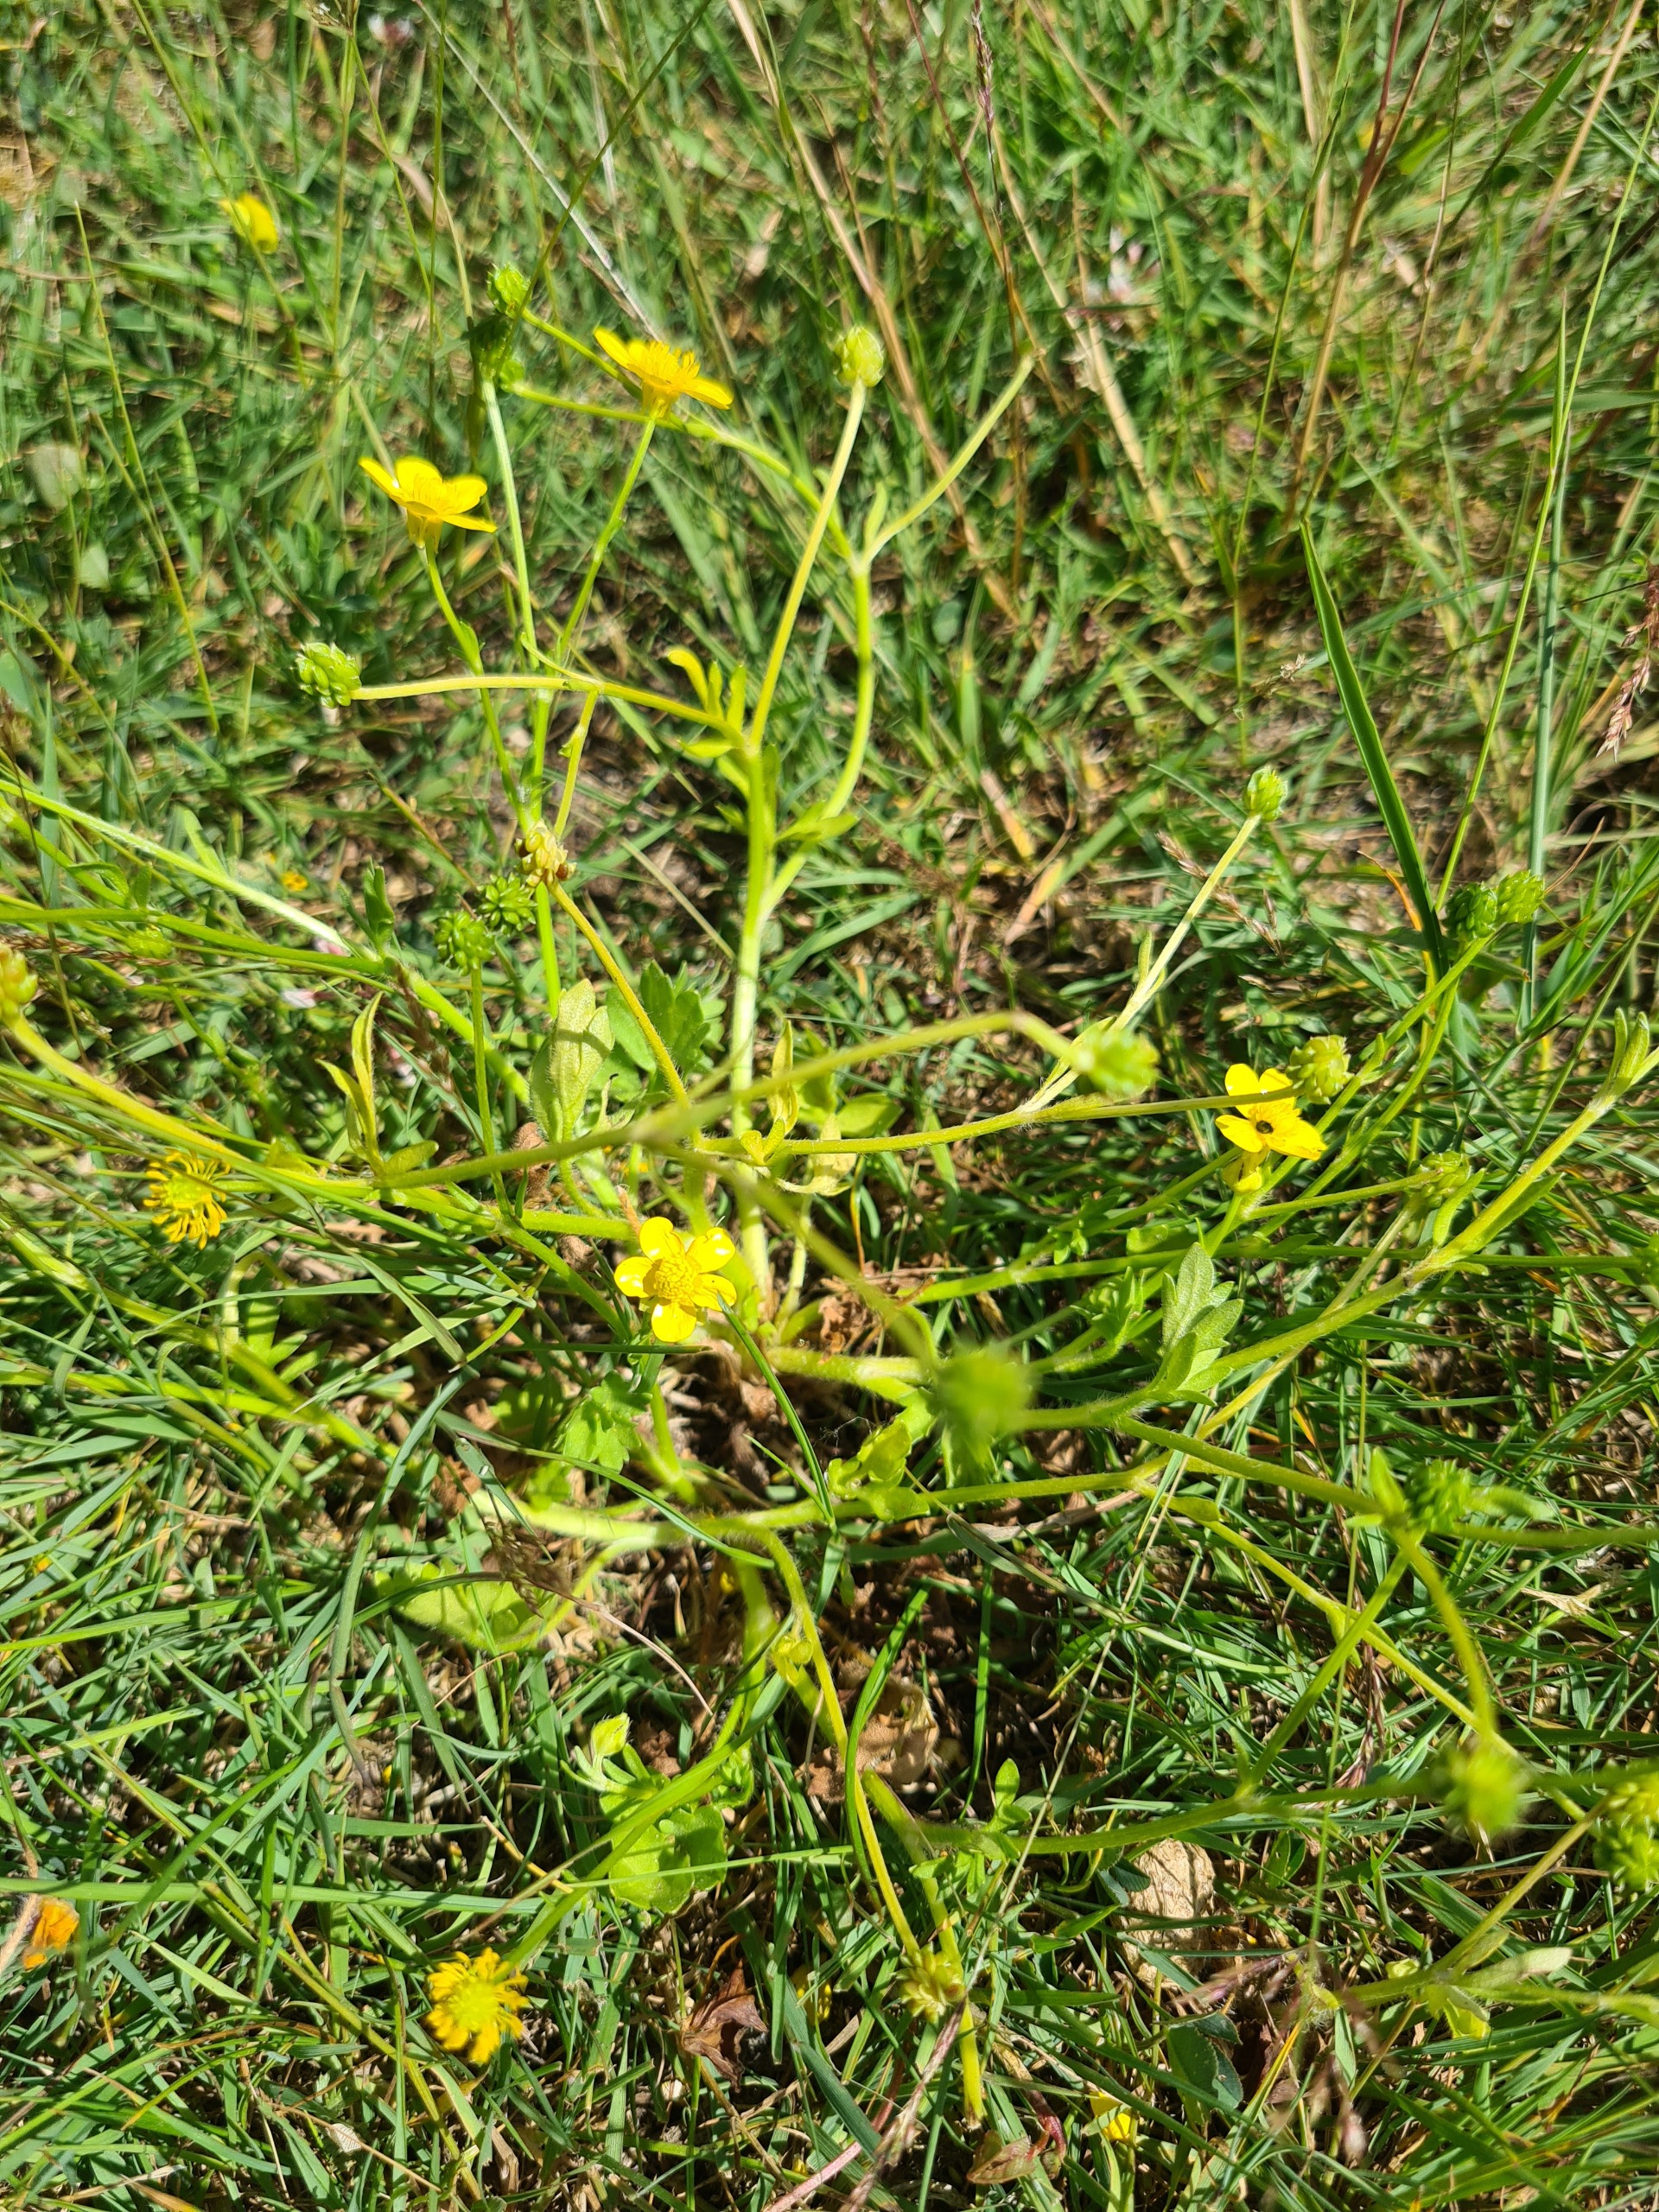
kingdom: Plantae
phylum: Tracheophyta
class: Magnoliopsida
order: Ranunculales
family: Ranunculaceae
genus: Ranunculus
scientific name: Ranunculus sardous
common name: Stivhåret ranunkel
